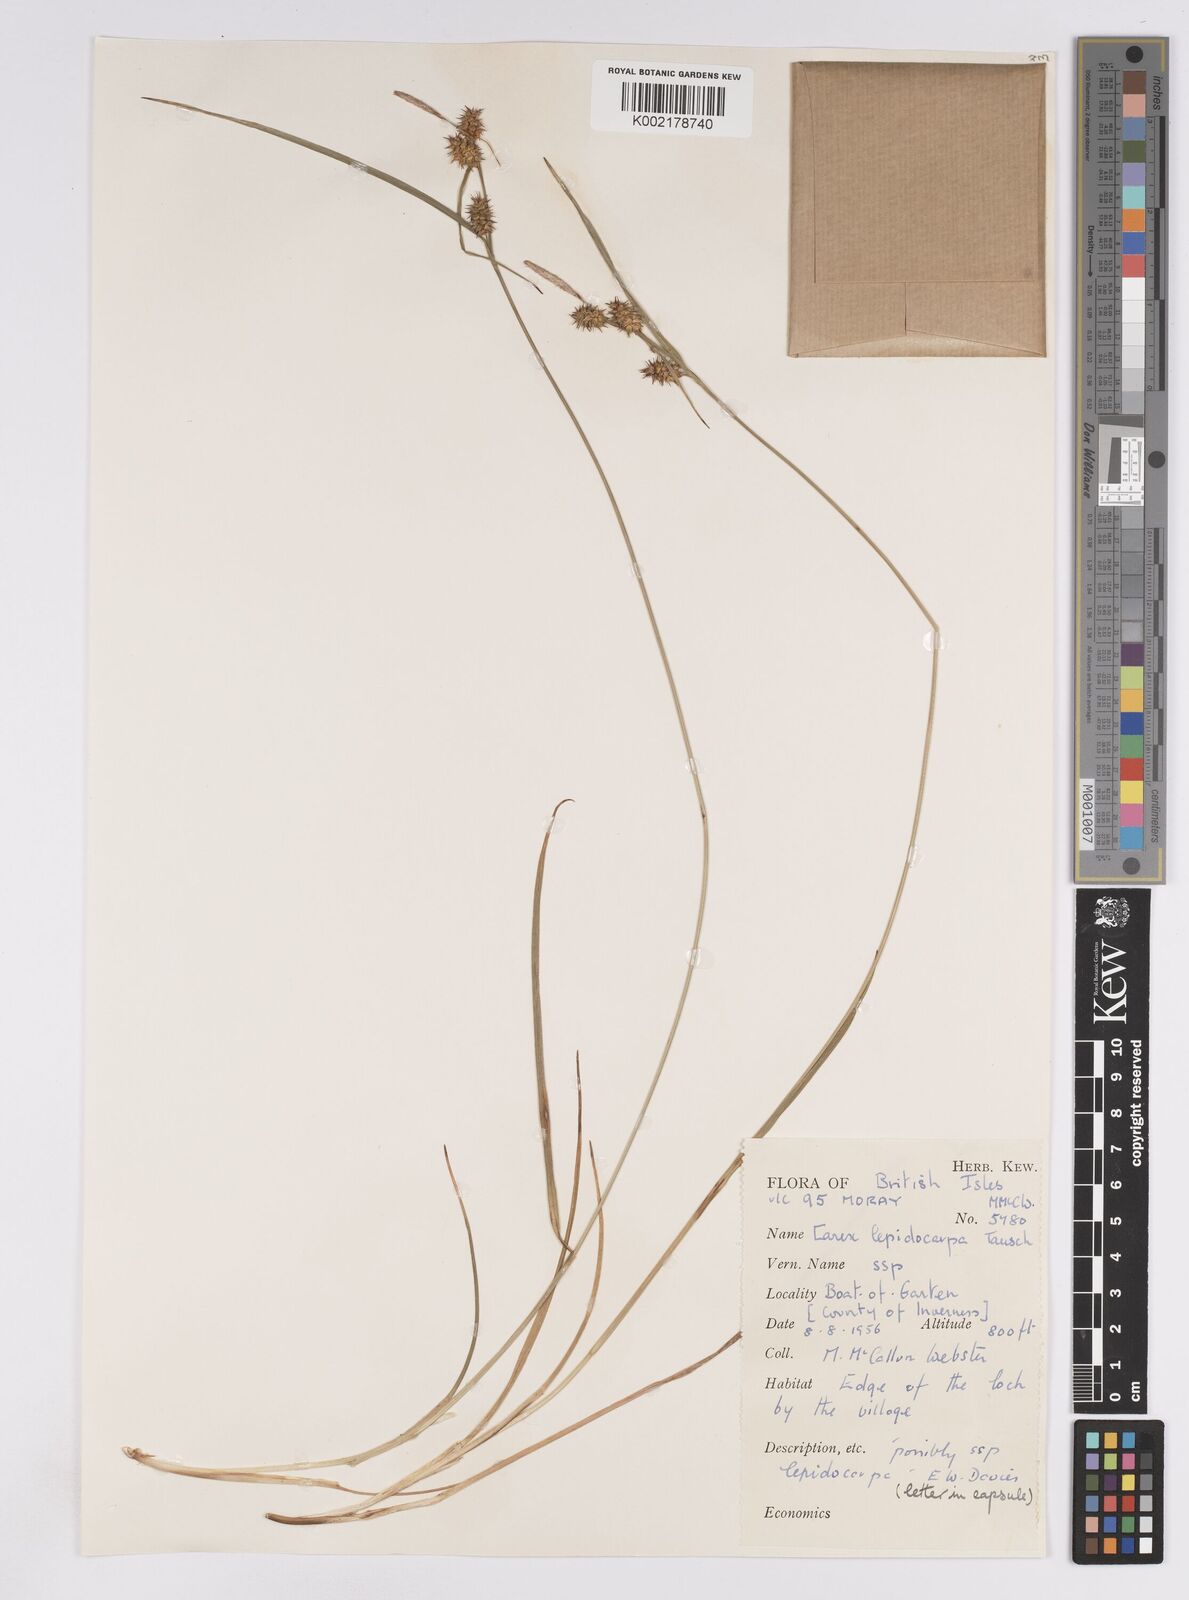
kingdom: Plantae
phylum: Tracheophyta
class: Liliopsida
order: Poales
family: Cyperaceae
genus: Carex
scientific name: Carex lepidocarpa
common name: Long-stalked yellow-sedge
